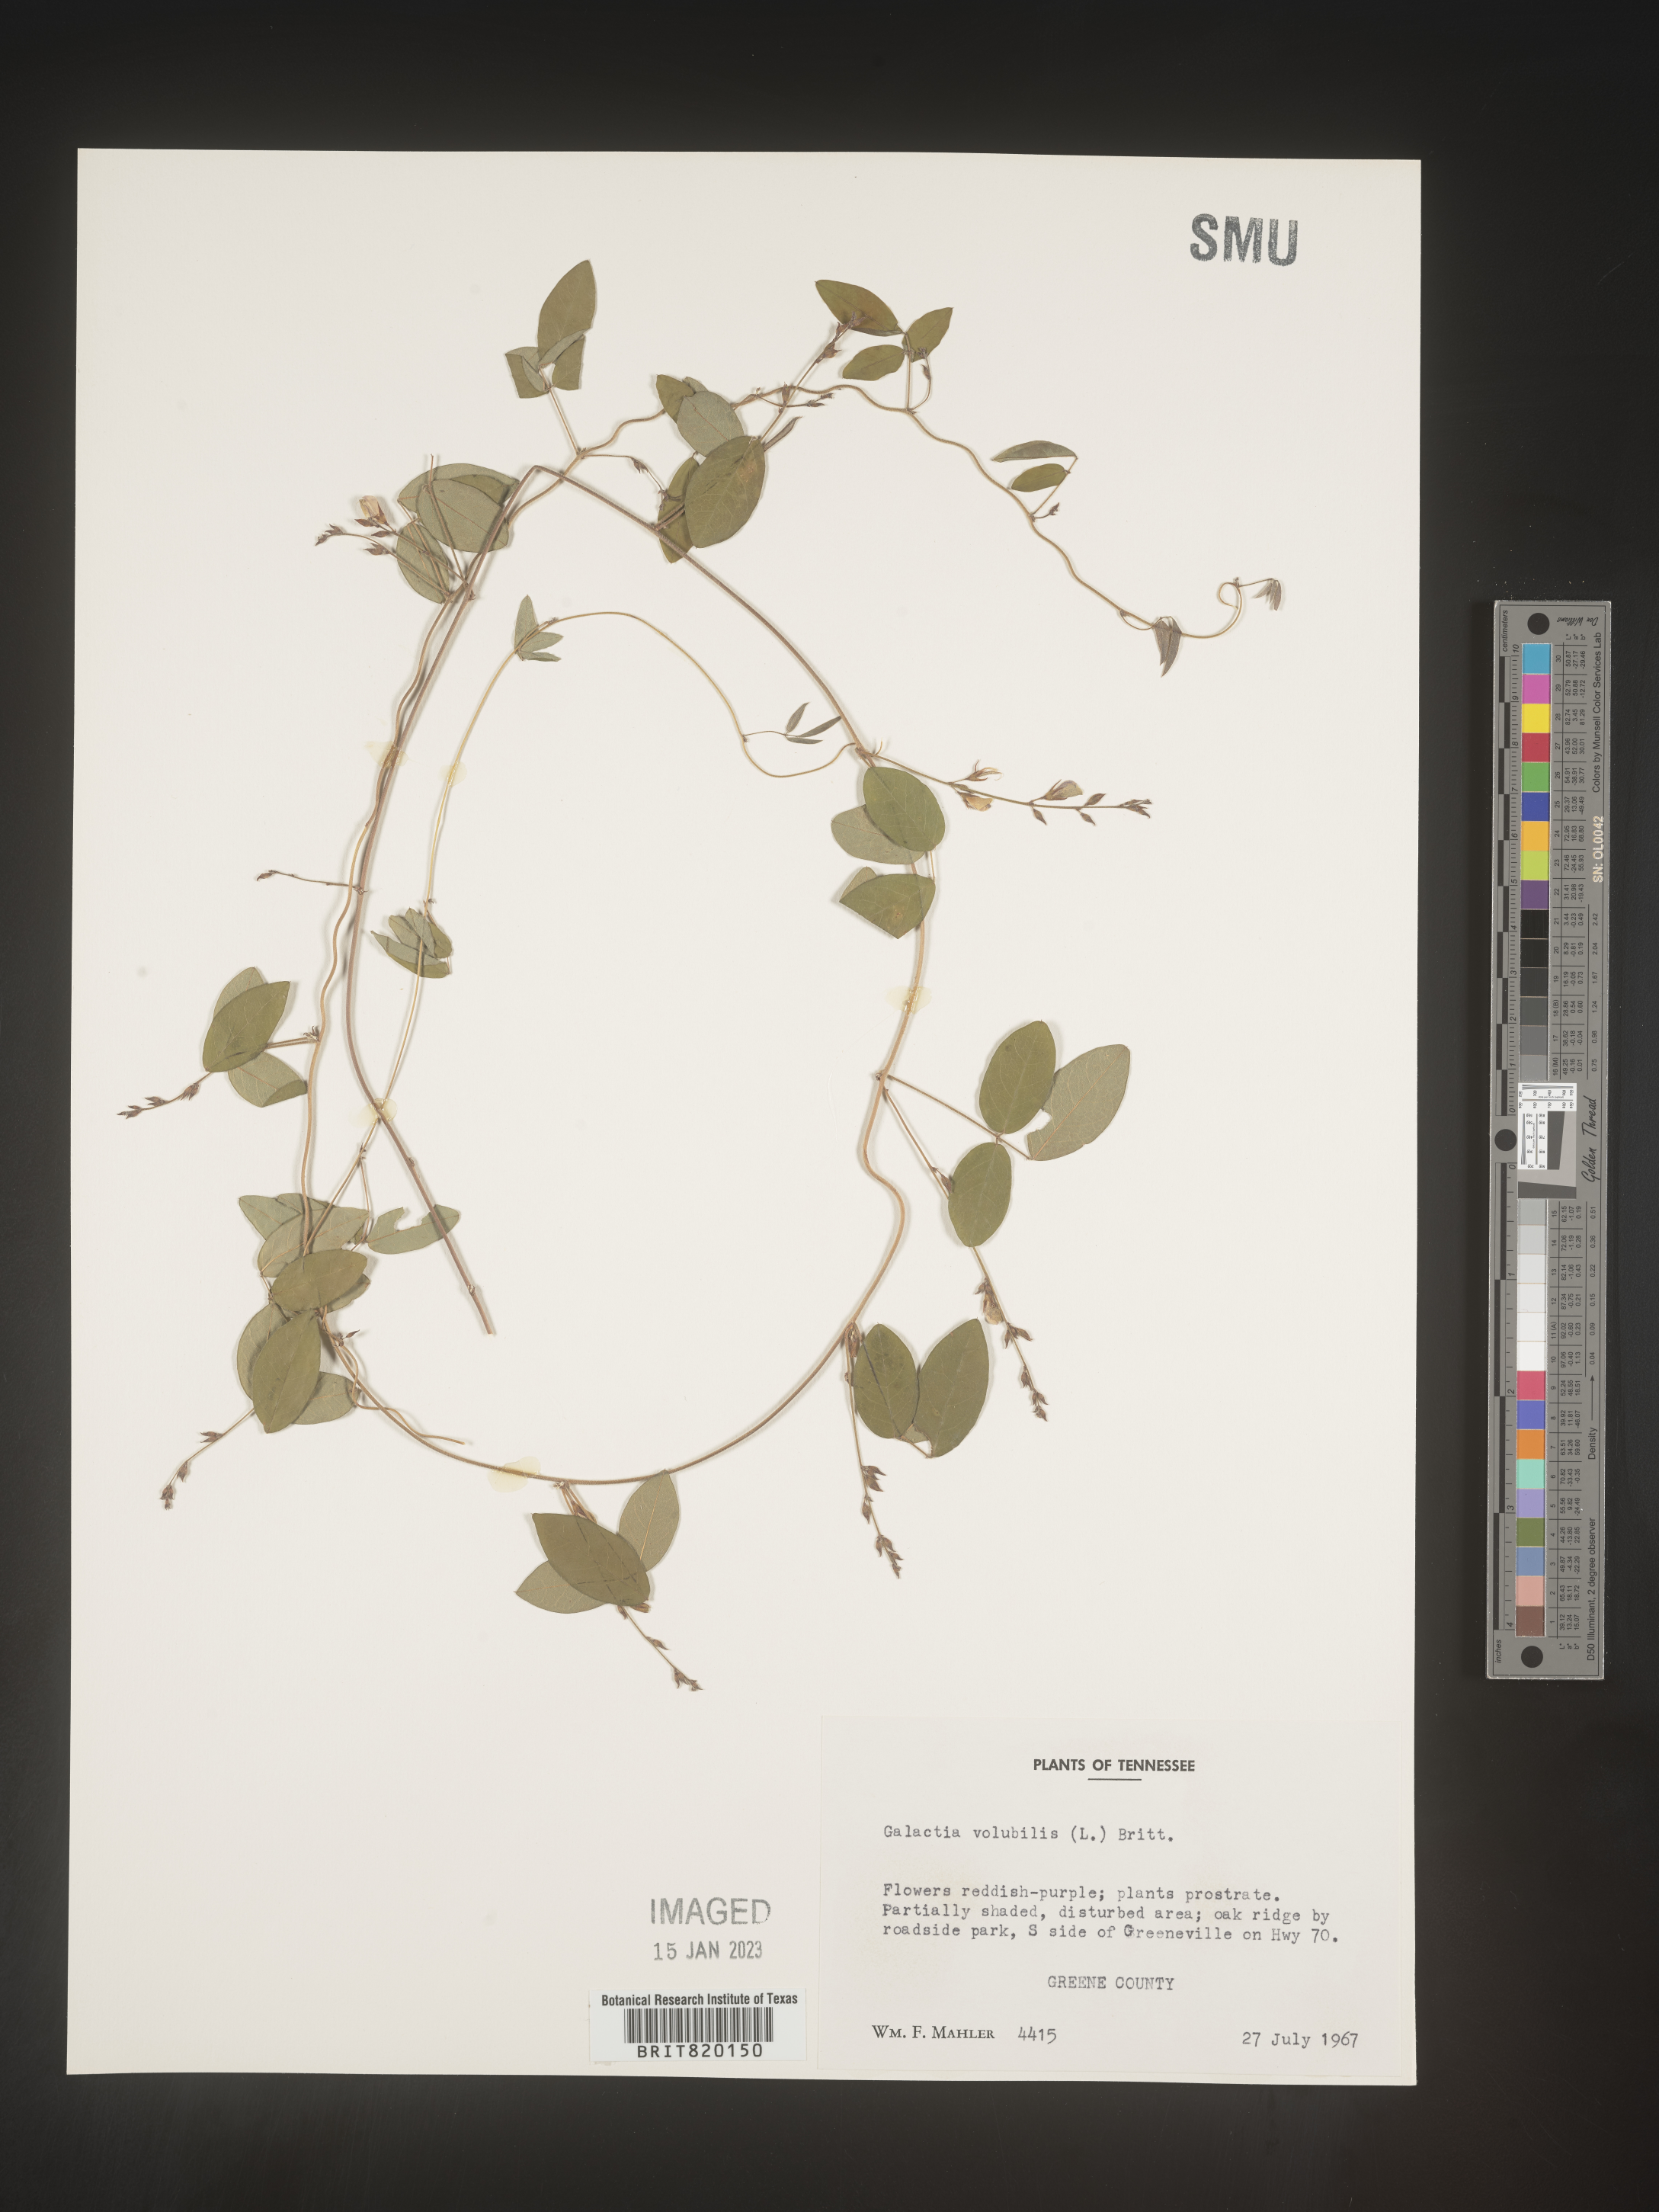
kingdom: Plantae
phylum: Tracheophyta
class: Magnoliopsida
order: Fabales
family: Fabaceae
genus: Galactia
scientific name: Galactia volubilis
